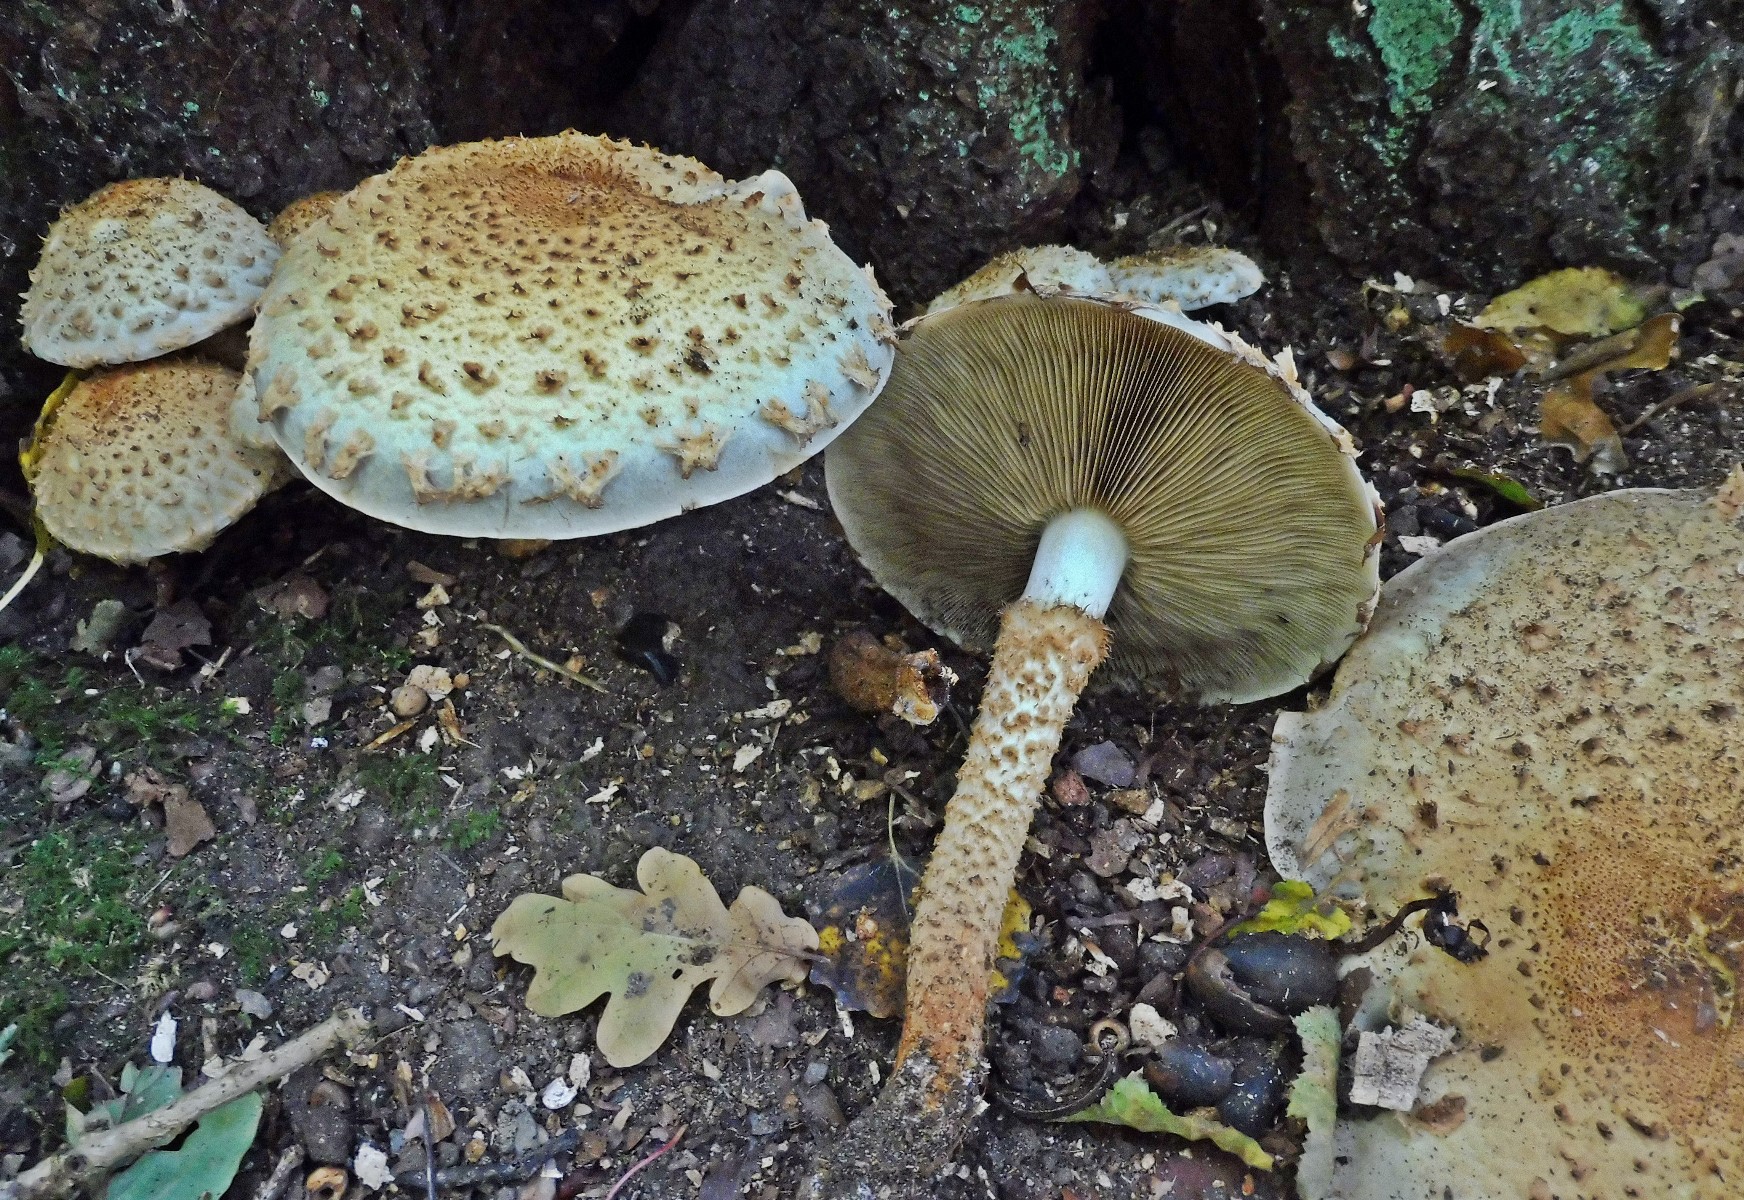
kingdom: Fungi
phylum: Basidiomycota
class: Agaricomycetes
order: Agaricales
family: Strophariaceae
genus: Pholiota
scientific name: Pholiota squarrosa
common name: krumskællet skælhat
